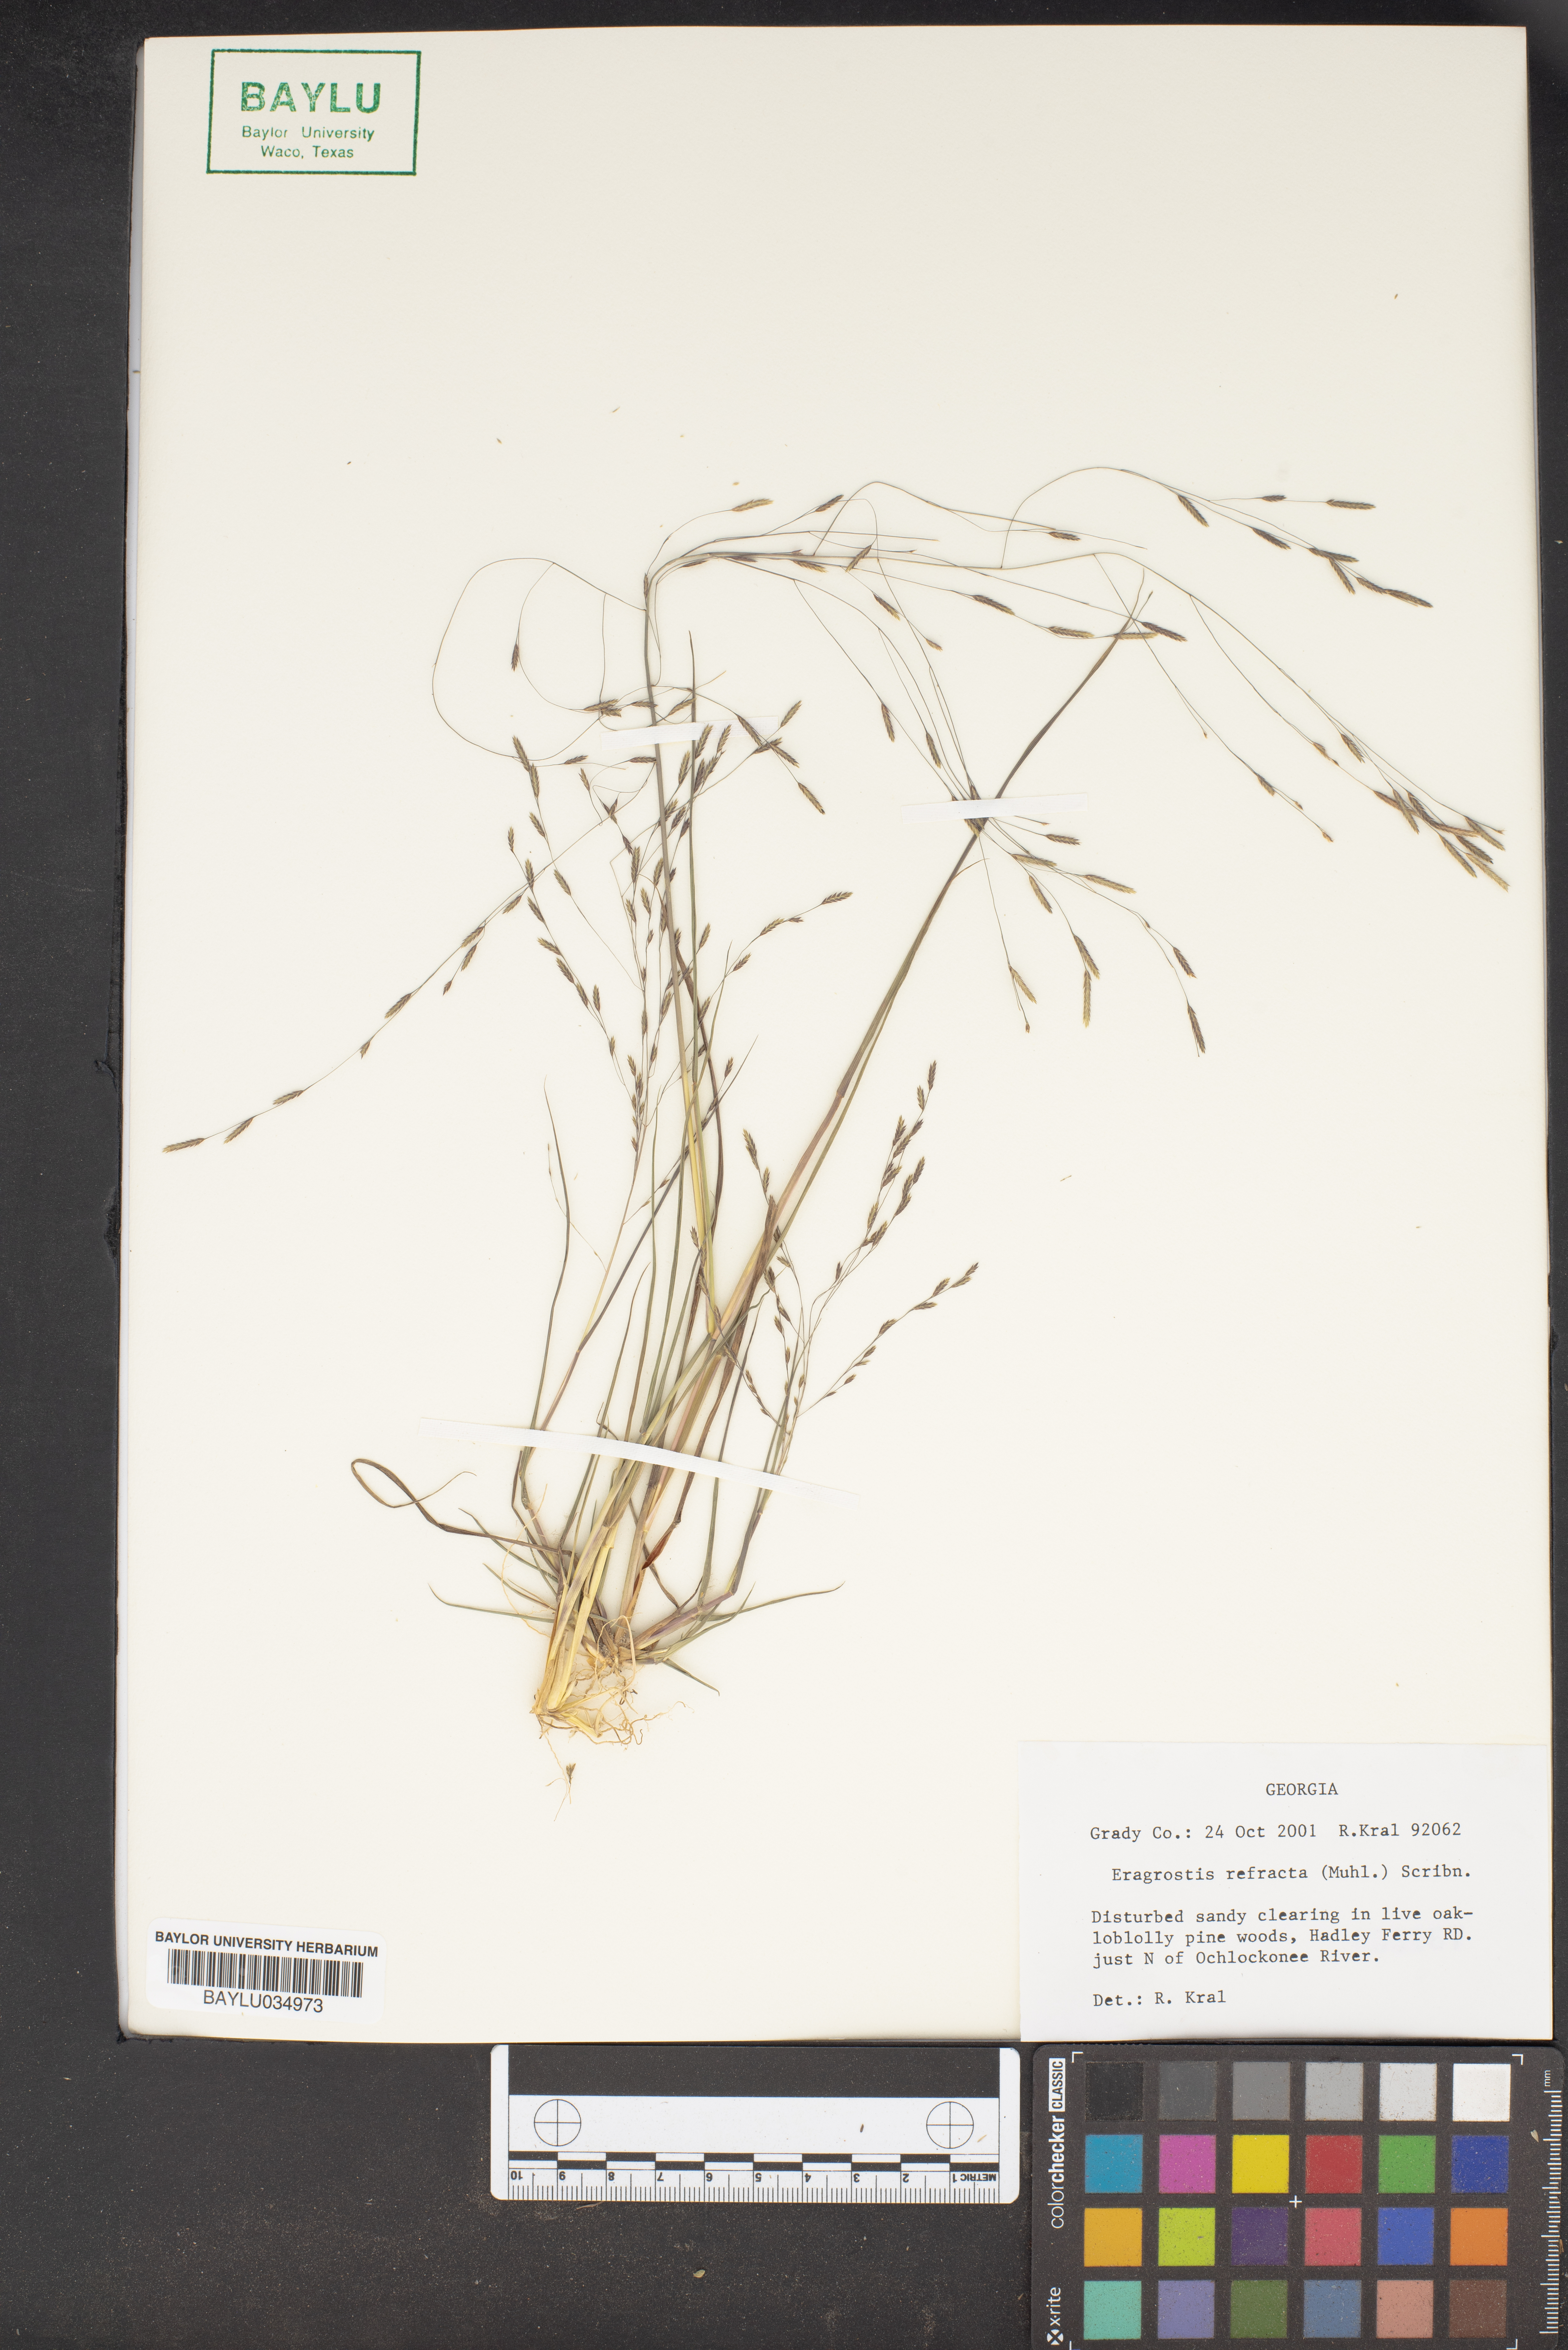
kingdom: Plantae
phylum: Tracheophyta
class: Liliopsida
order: Poales
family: Poaceae
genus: Eragrostis
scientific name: Eragrostis refracta
